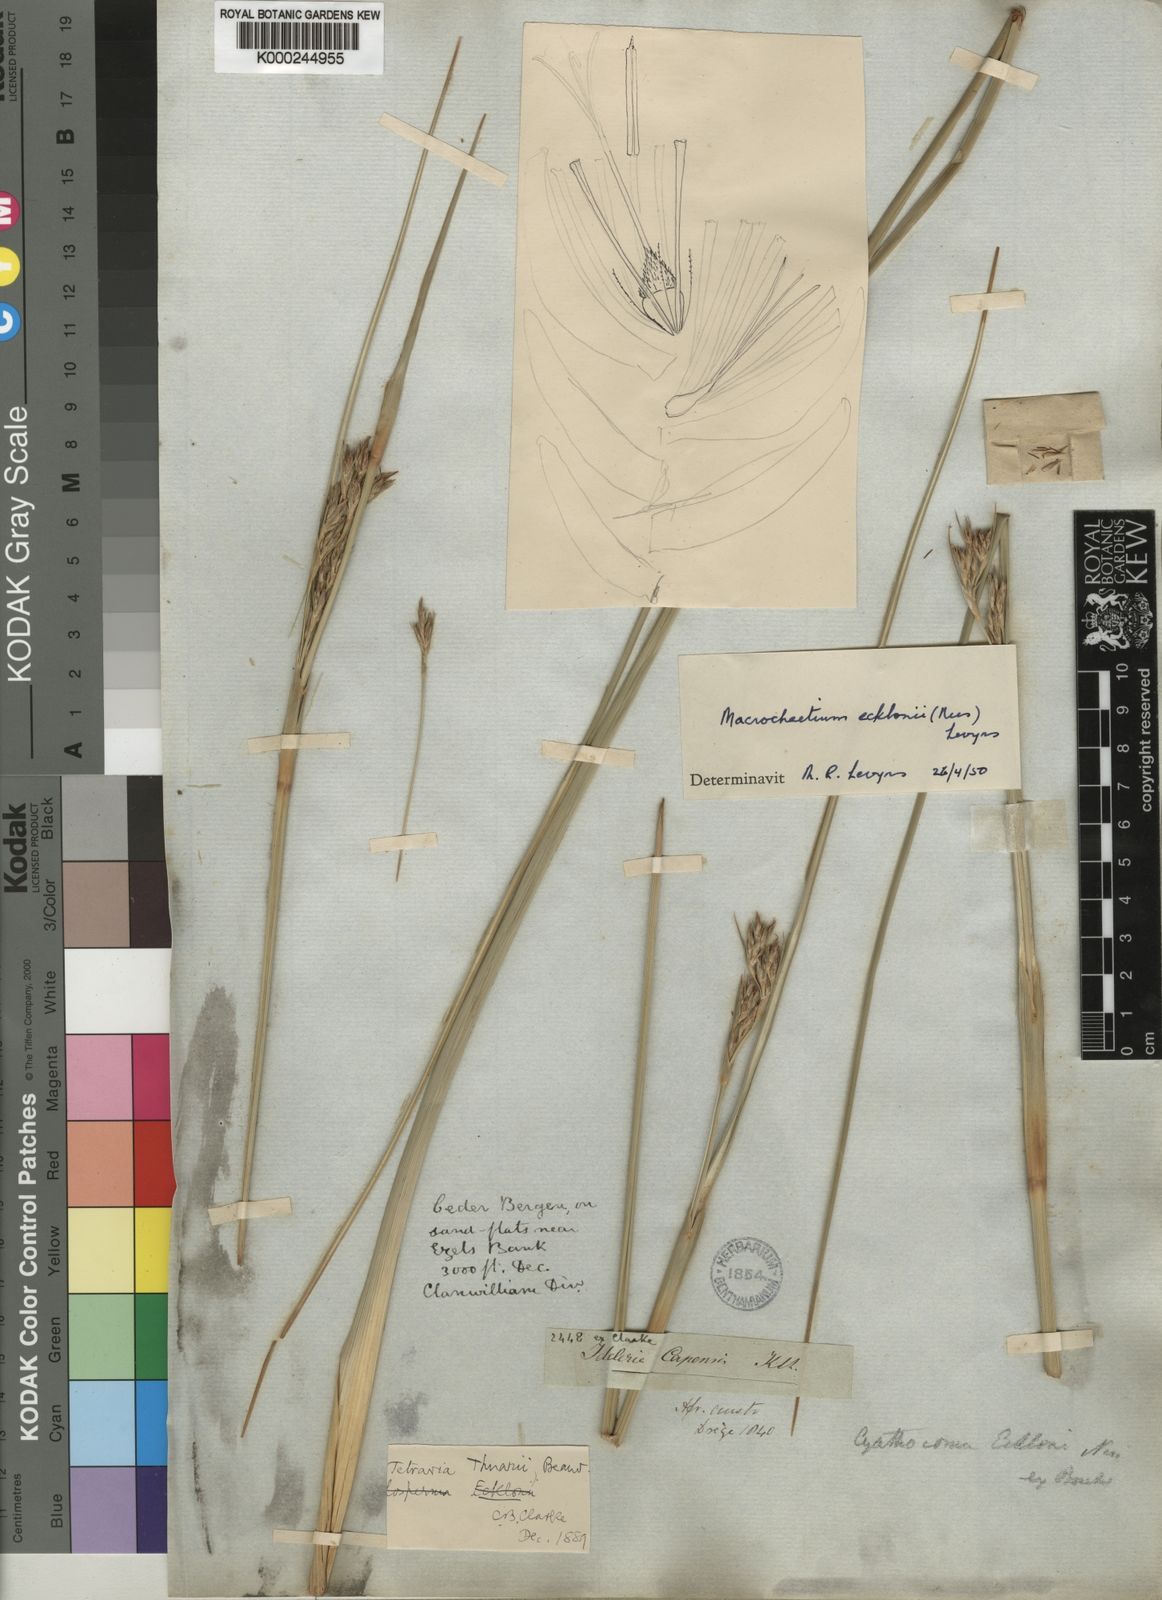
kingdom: Plantae
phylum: Tracheophyta
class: Liliopsida
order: Poales
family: Cyperaceae
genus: Tetraria
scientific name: Tetraria
